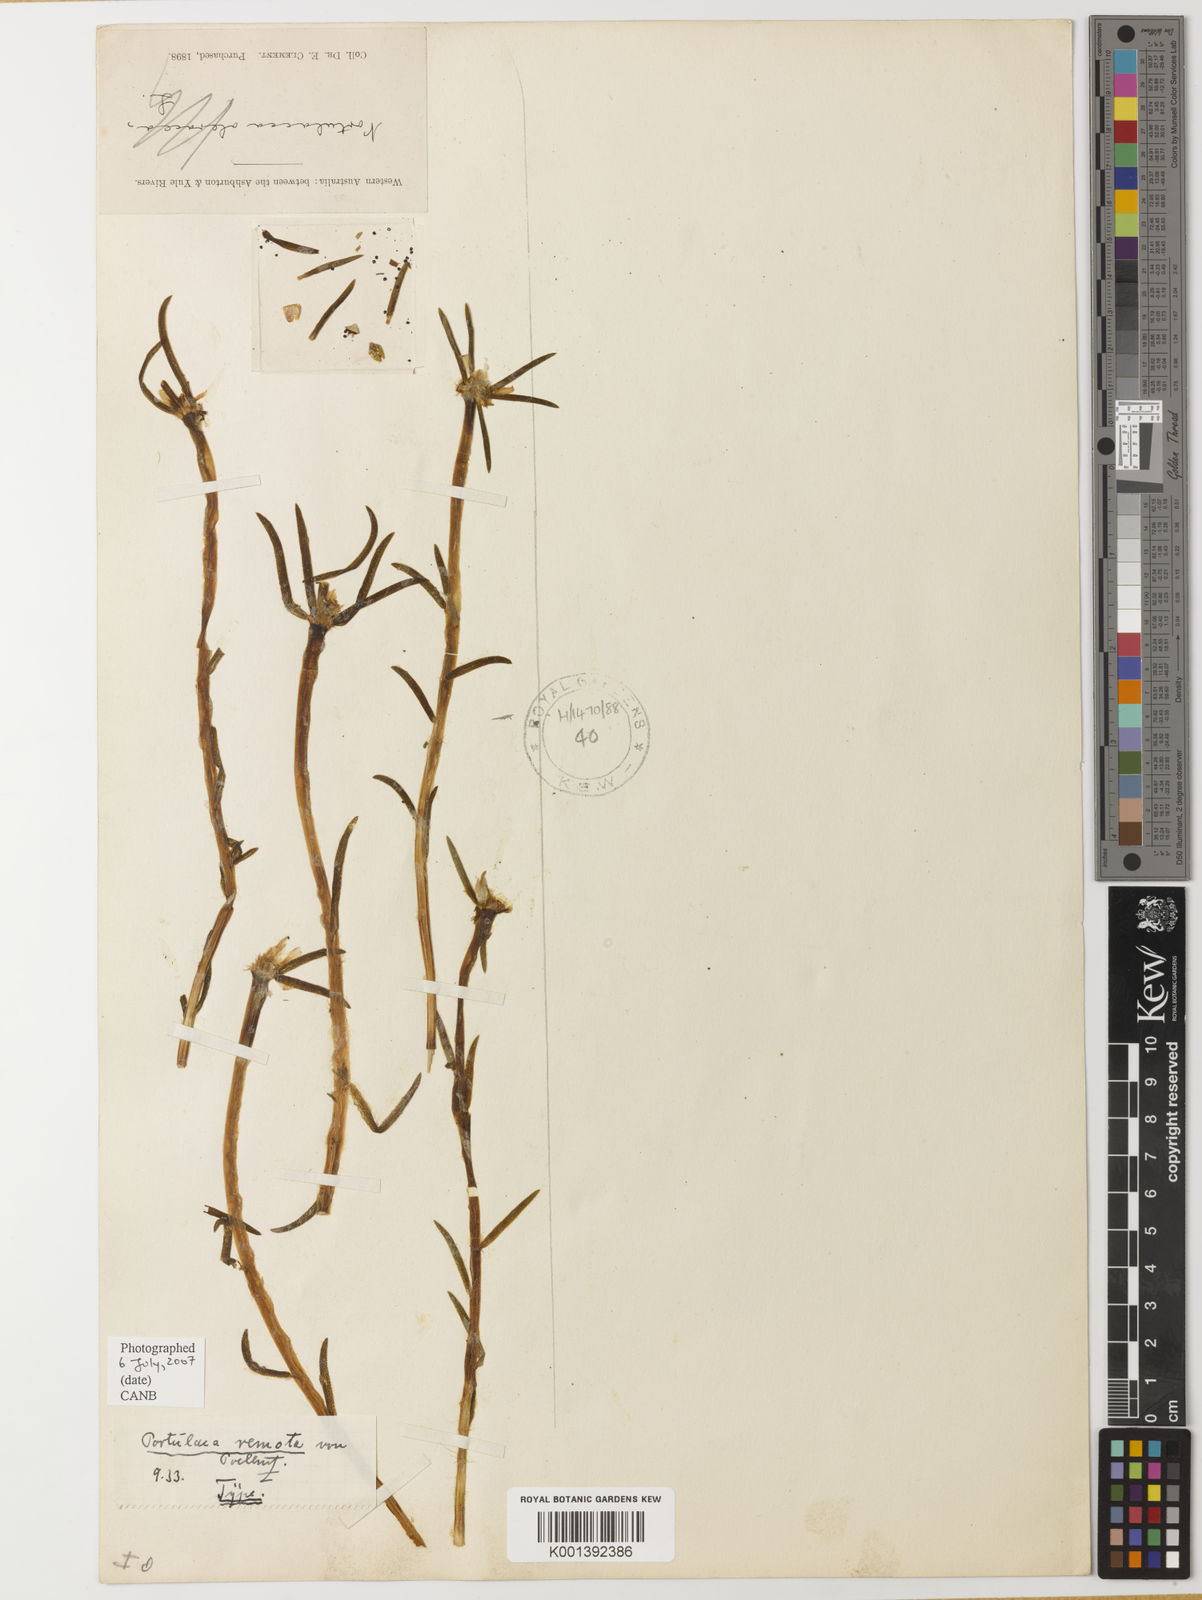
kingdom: Plantae
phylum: Tracheophyta
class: Magnoliopsida
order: Caryophyllales
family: Portulacaceae
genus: Portulaca
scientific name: Portulaca
